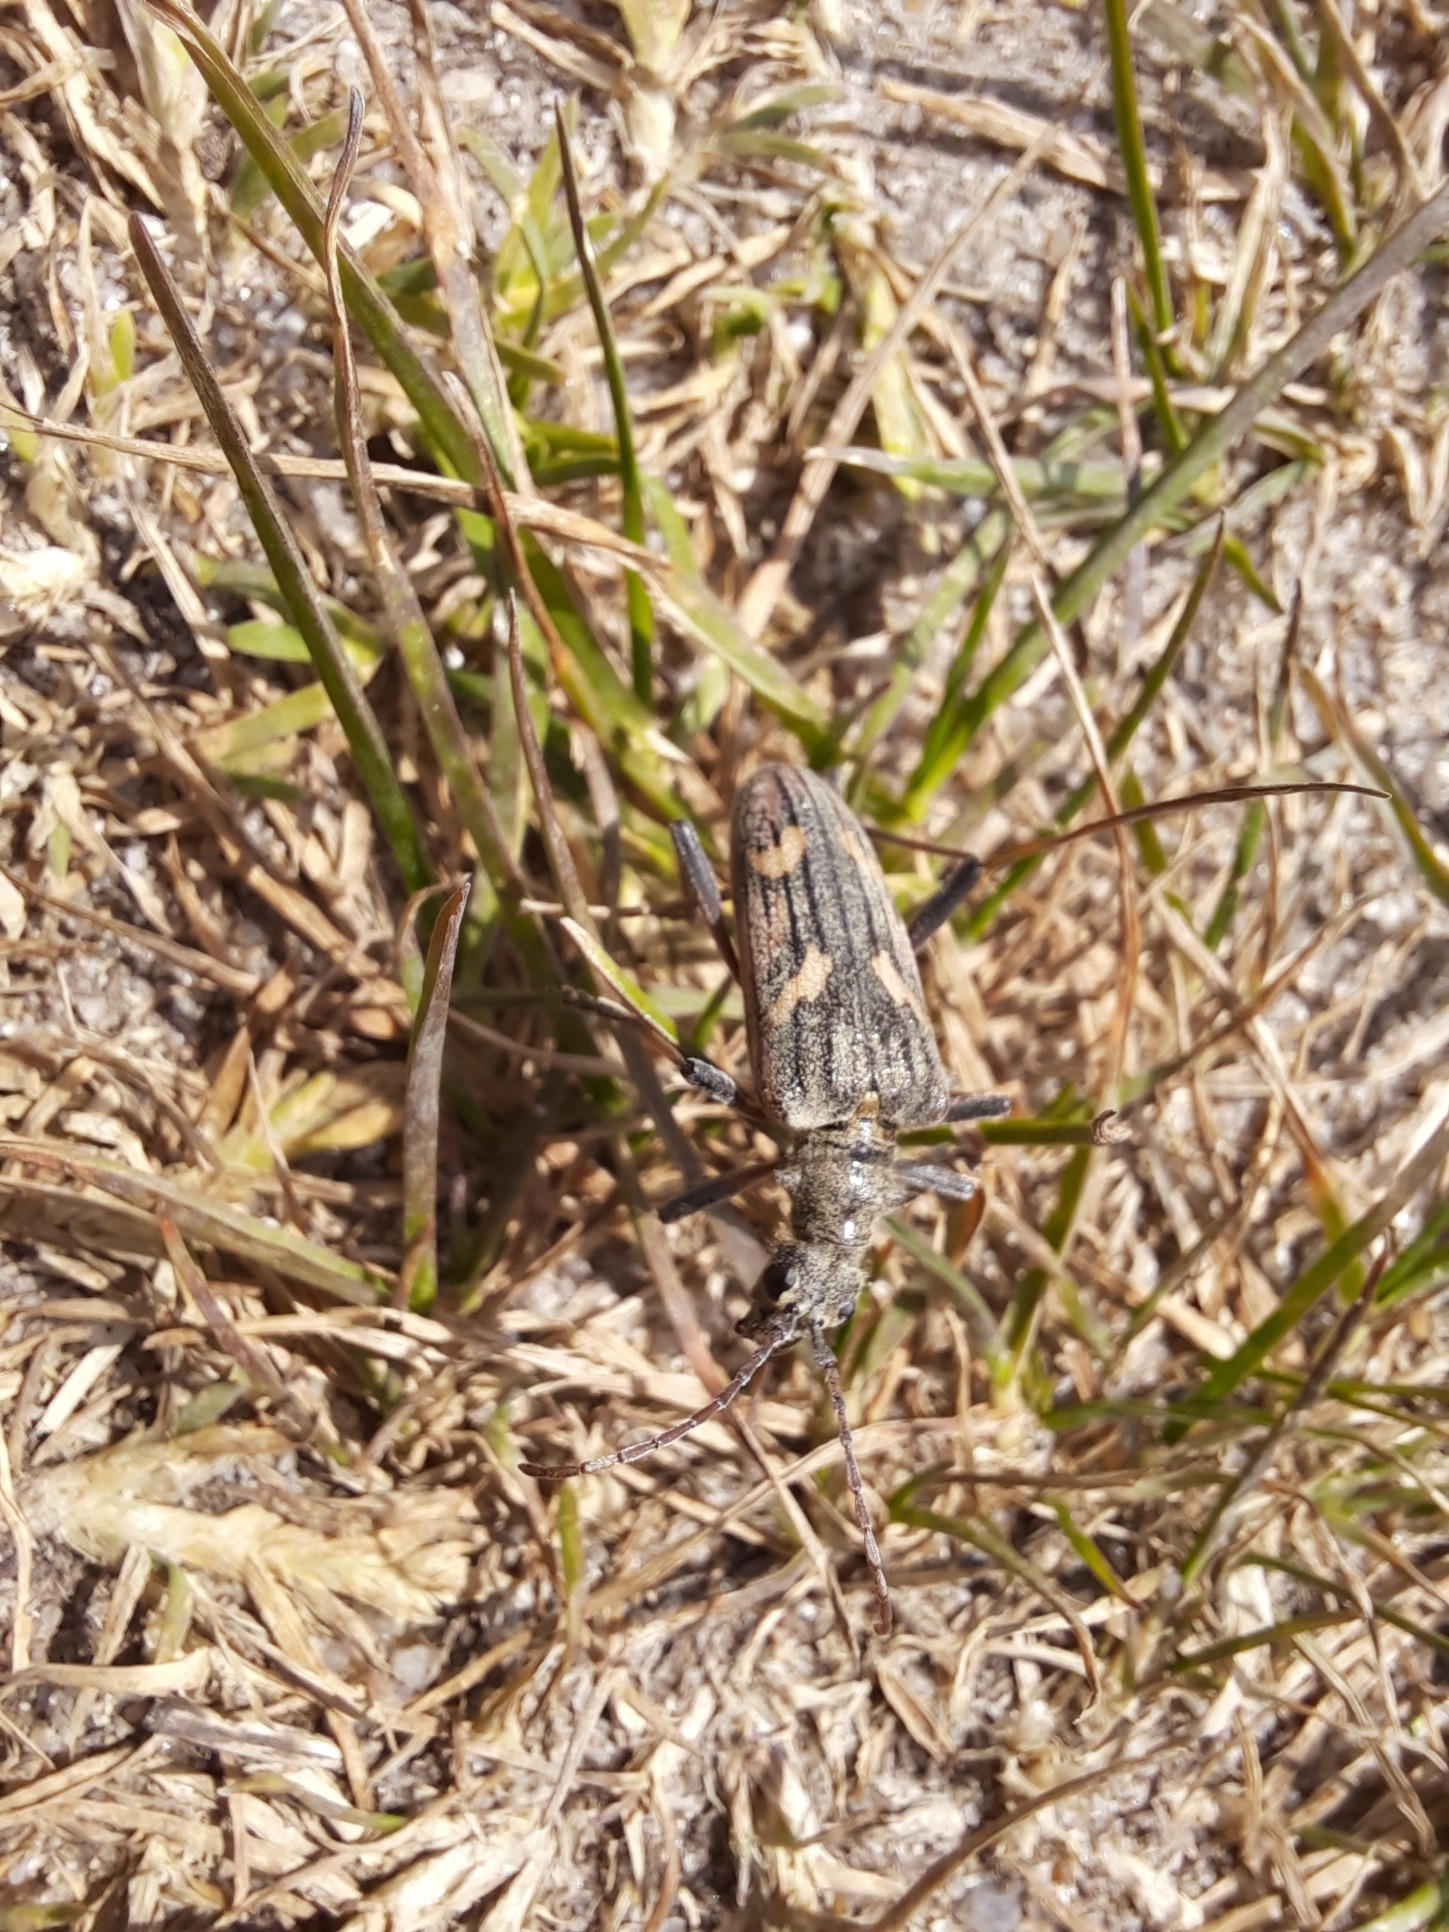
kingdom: Animalia
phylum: Arthropoda
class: Insecta
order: Coleoptera
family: Cerambycidae
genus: Rhagium
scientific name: Rhagium bifasciatum
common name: Båndet tandbuk
